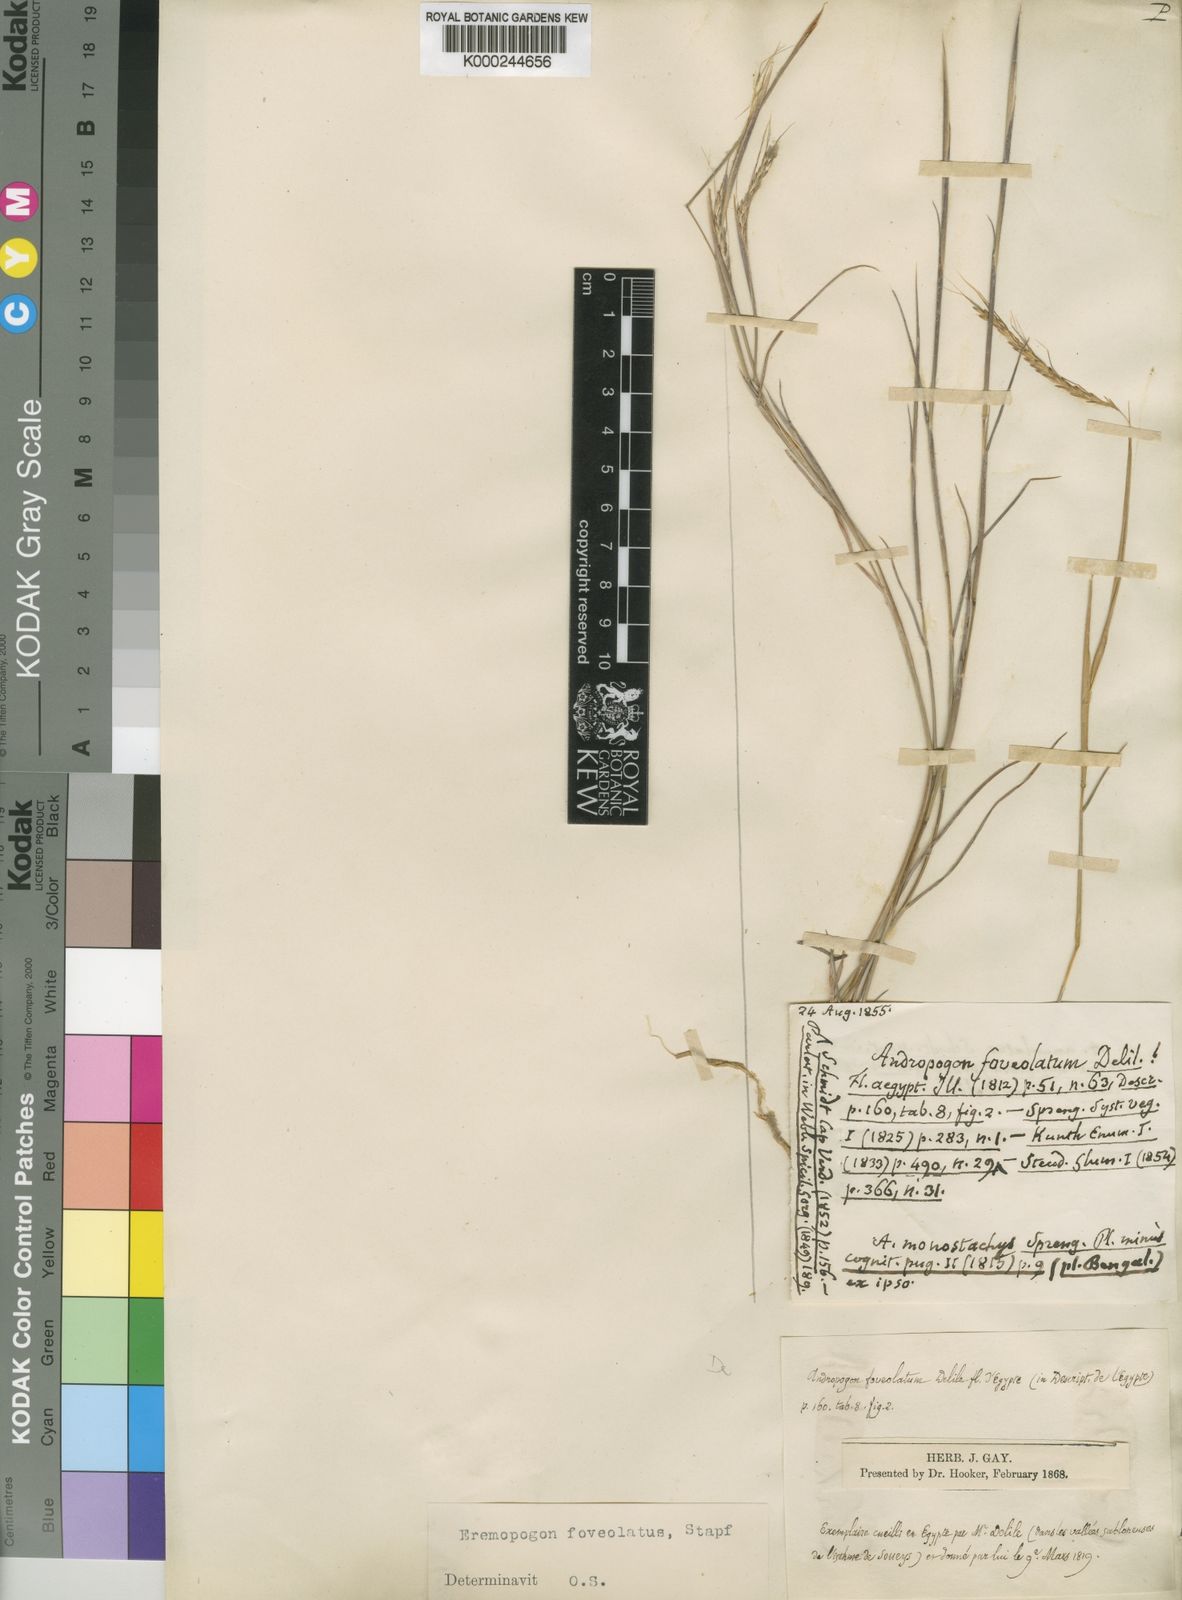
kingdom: Plantae
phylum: Tracheophyta
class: Liliopsida
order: Poales
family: Poaceae
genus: Dichanthelium
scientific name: Dichanthelium
